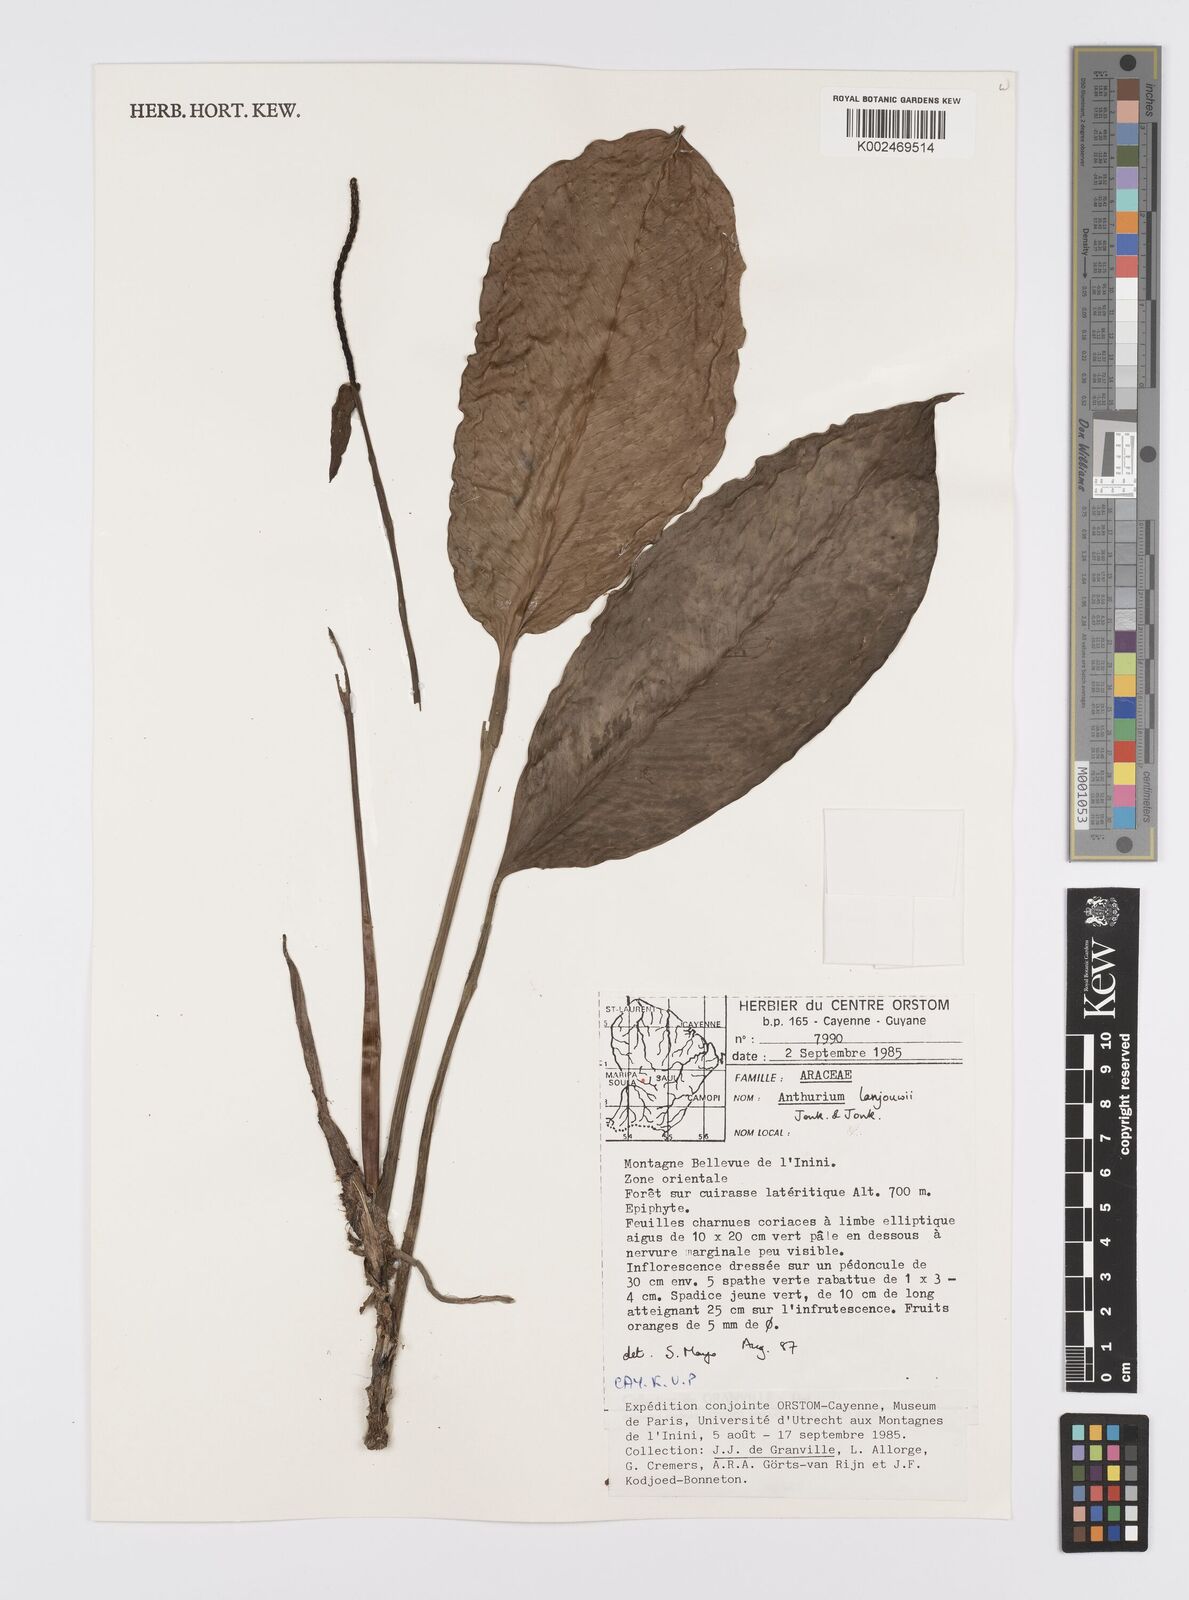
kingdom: Plantae
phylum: Tracheophyta
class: Liliopsida
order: Alismatales
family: Araceae
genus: Anthurium
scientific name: Anthurium lanjouwii
